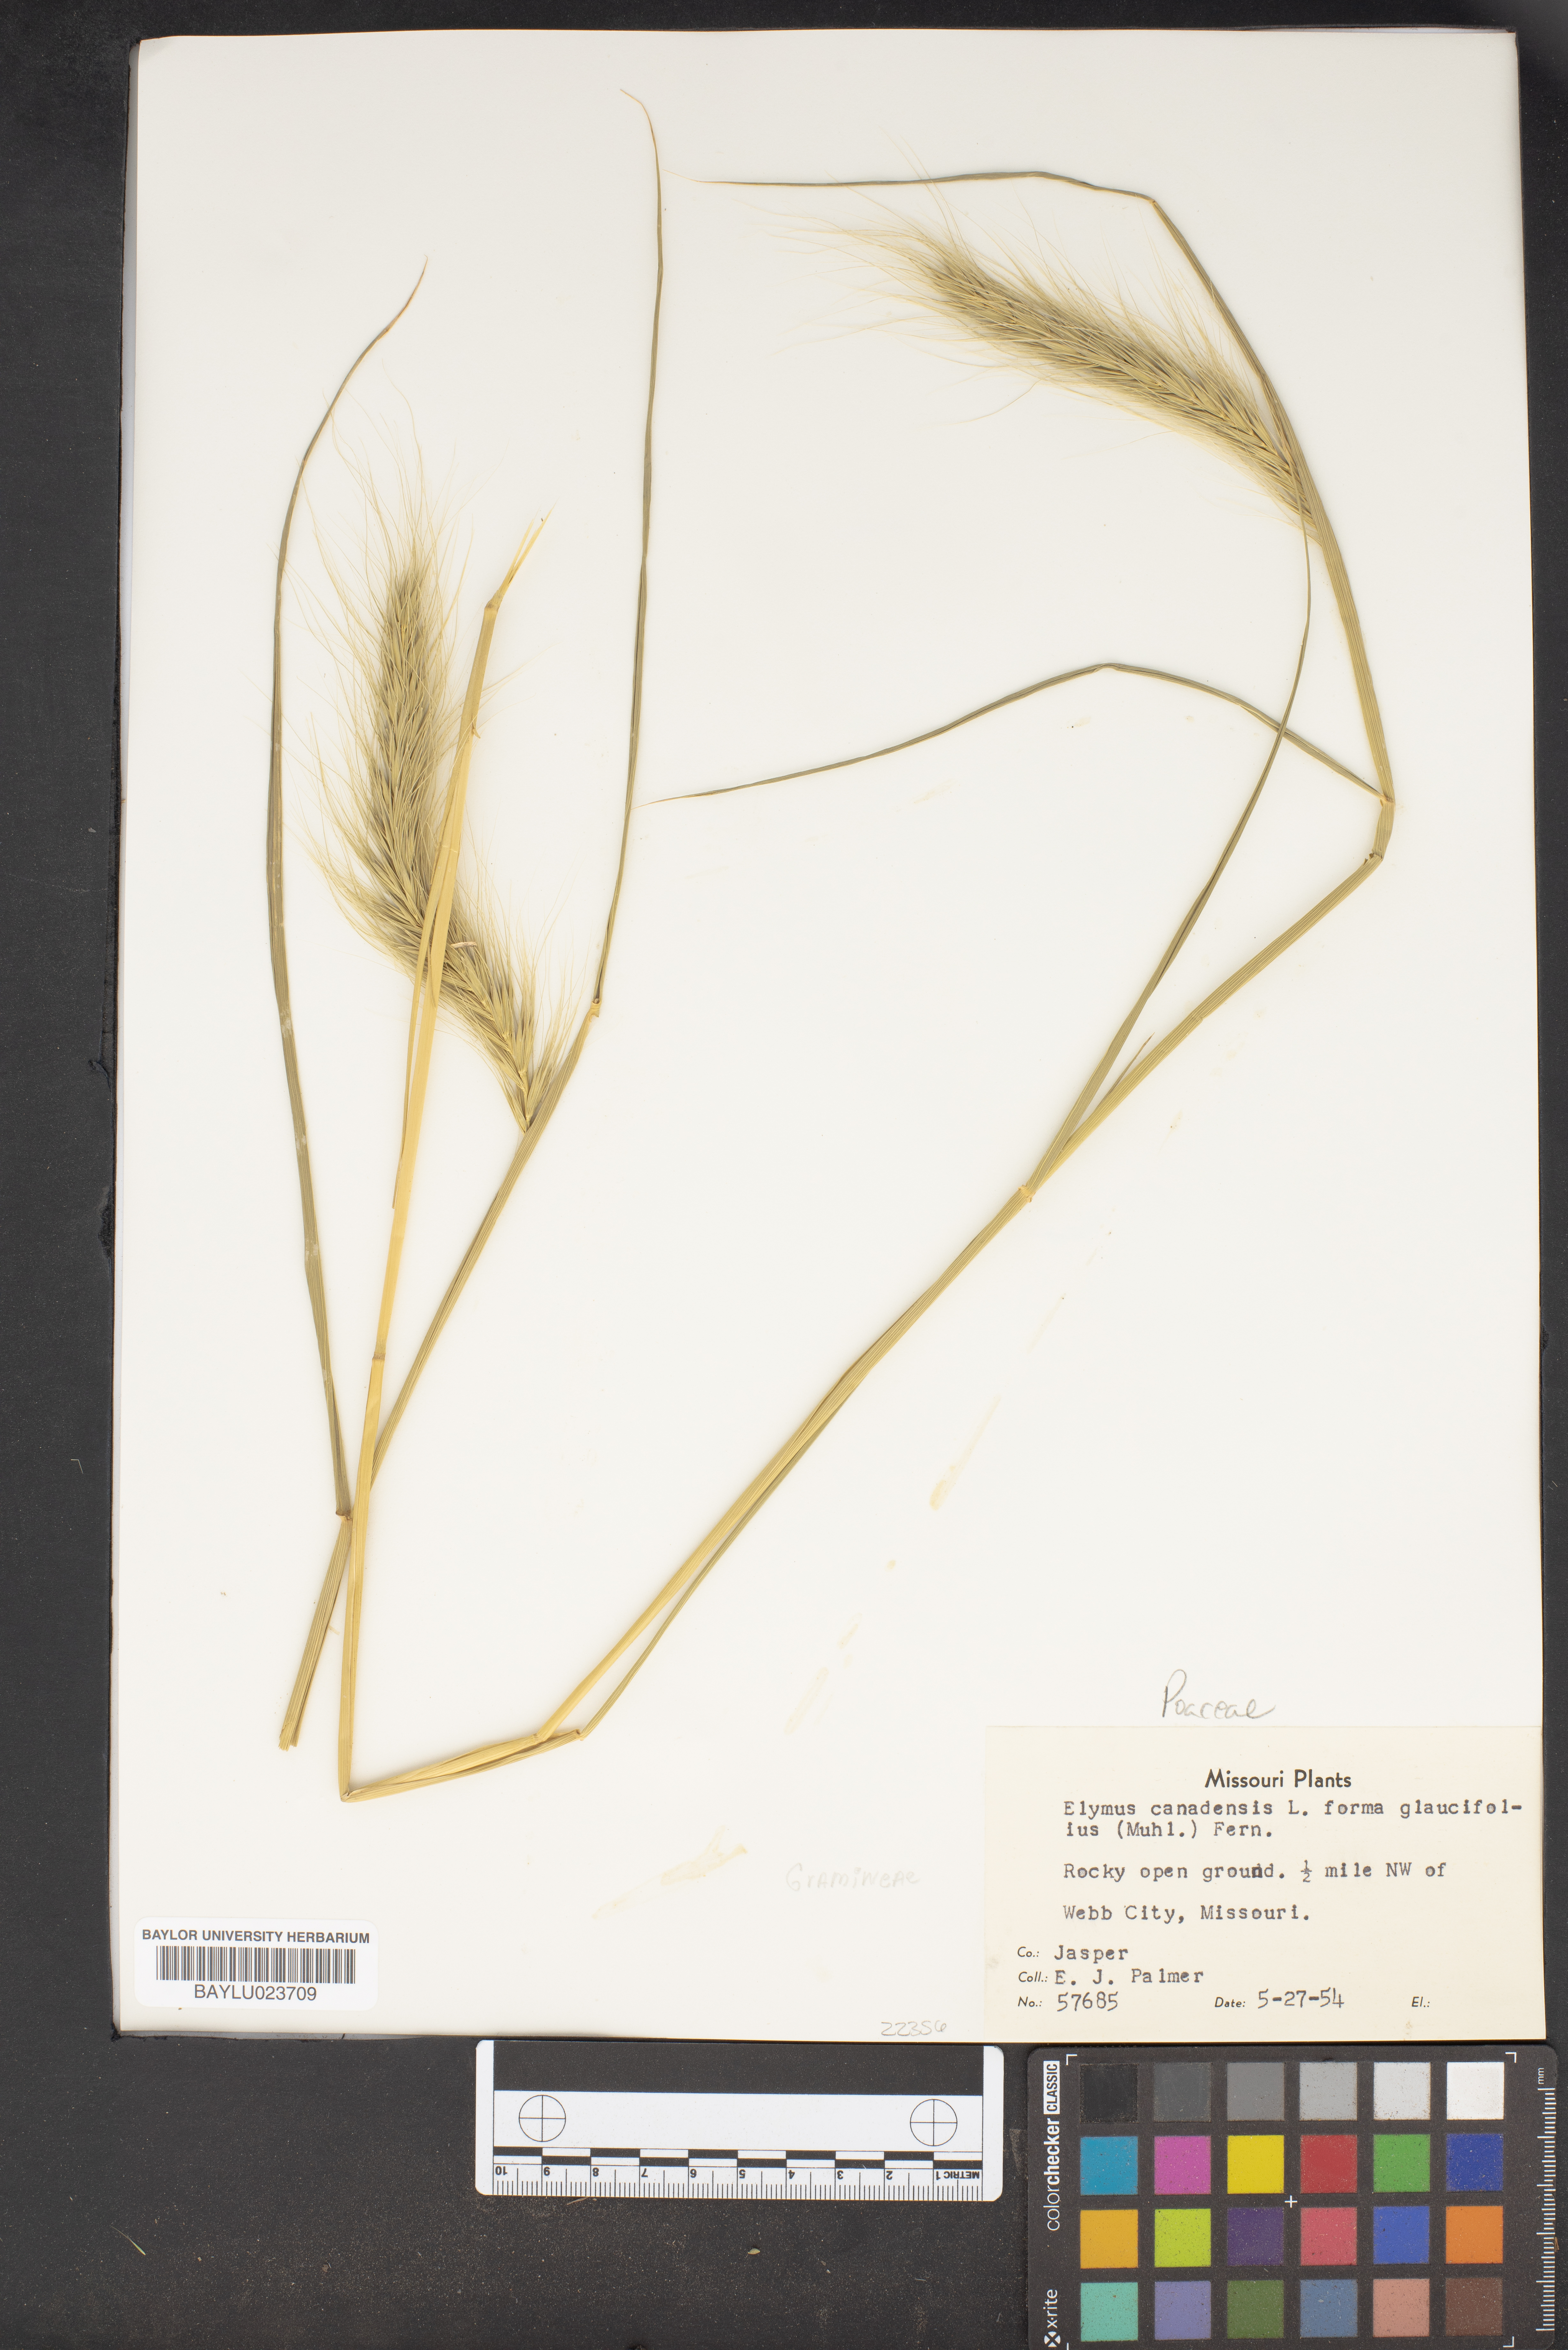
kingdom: Plantae
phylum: Tracheophyta
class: Liliopsida
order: Poales
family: Poaceae
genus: Elymus
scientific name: Elymus canadensis
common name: Canada wild rye
